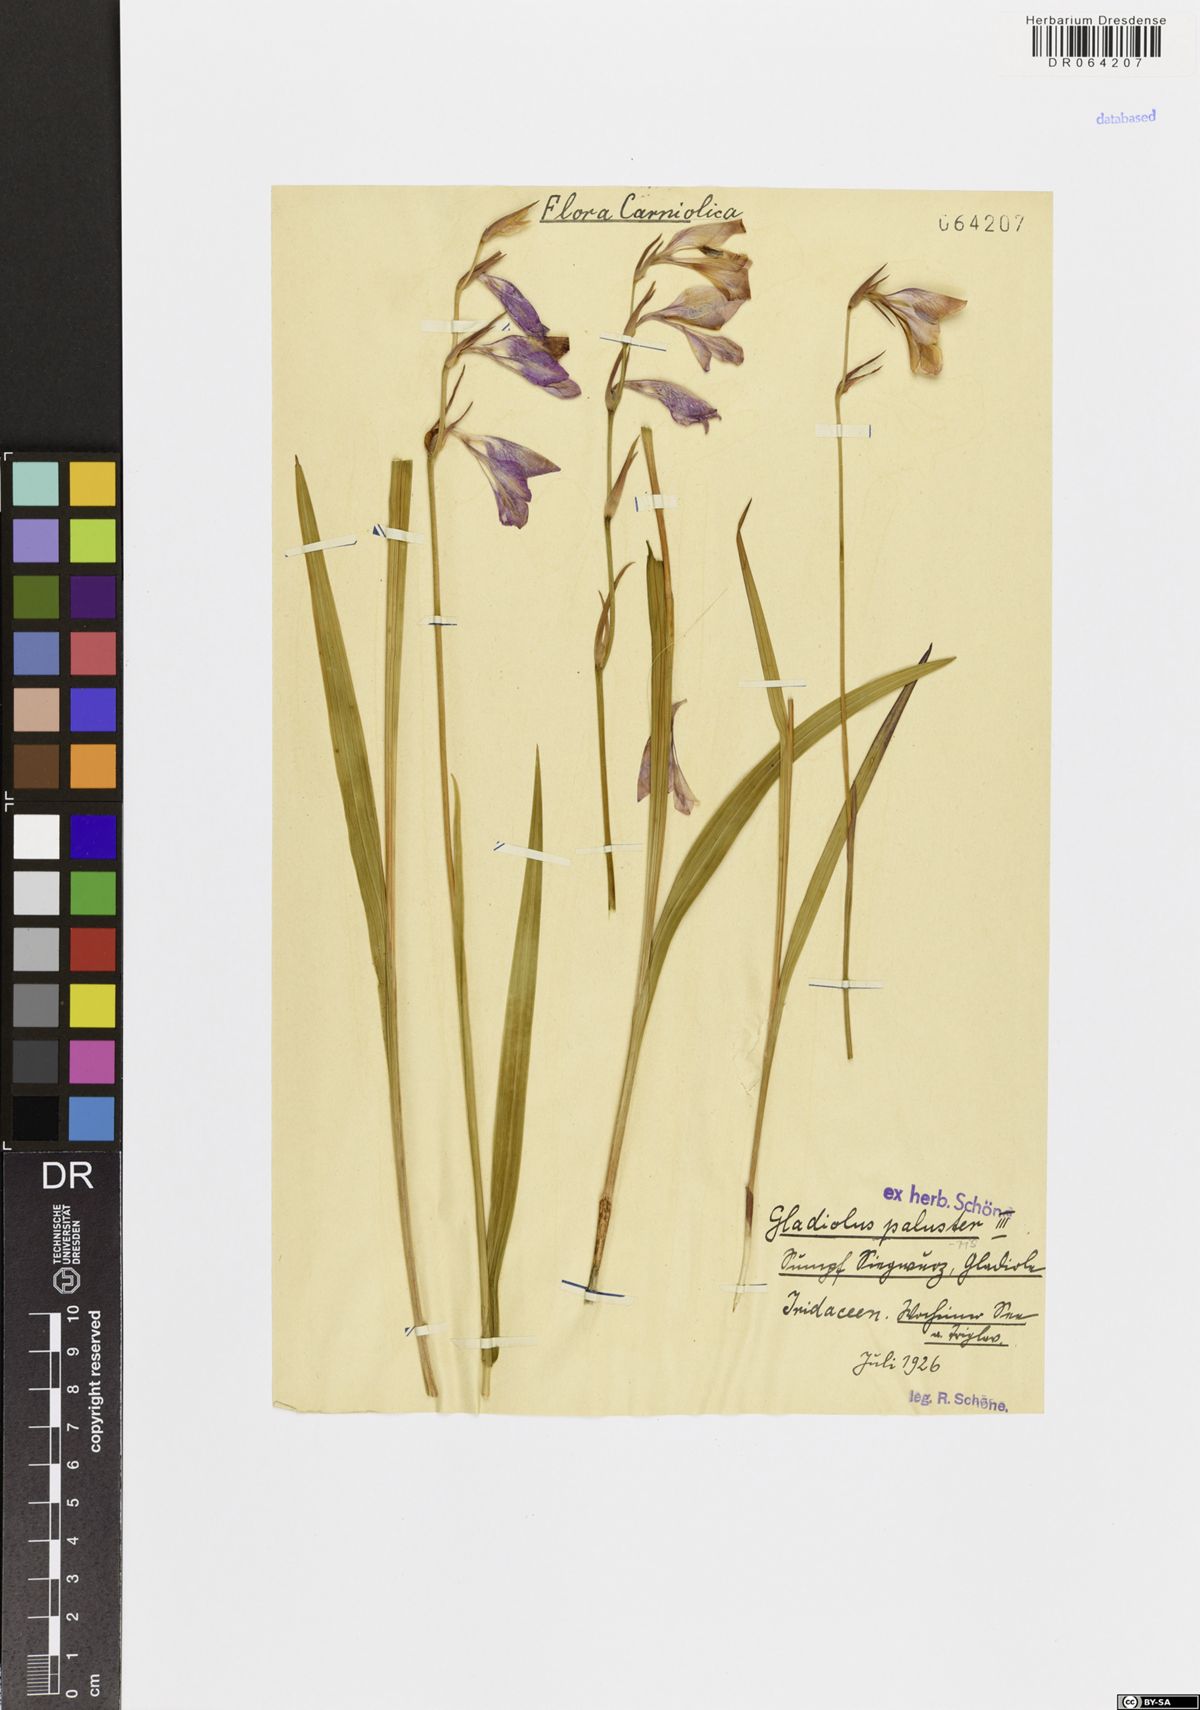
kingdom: Plantae
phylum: Tracheophyta
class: Liliopsida
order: Asparagales
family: Iridaceae
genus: Gladiolus
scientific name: Gladiolus palustris
